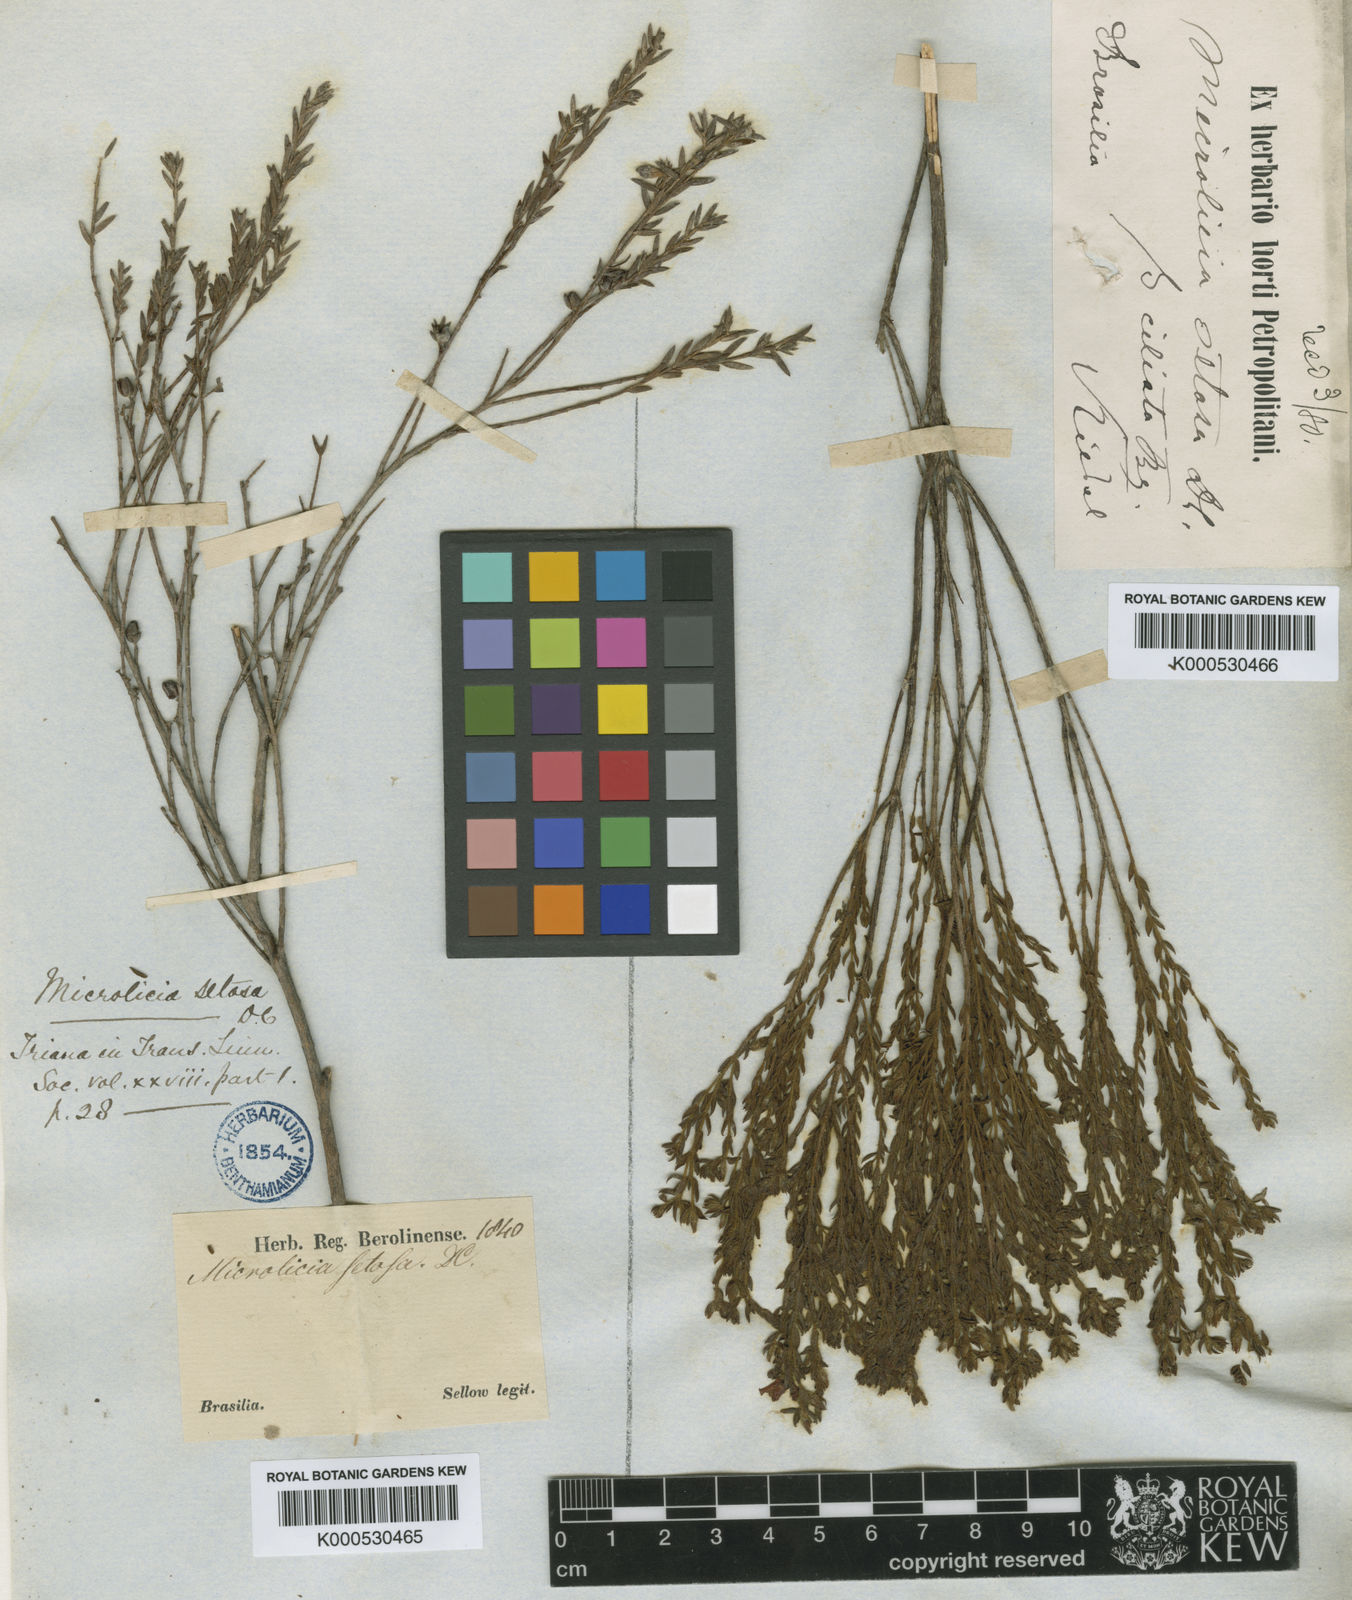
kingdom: Plantae
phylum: Tracheophyta
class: Magnoliopsida
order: Myrtales
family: Melastomataceae
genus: Microlicia
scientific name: Microlicia setosa
